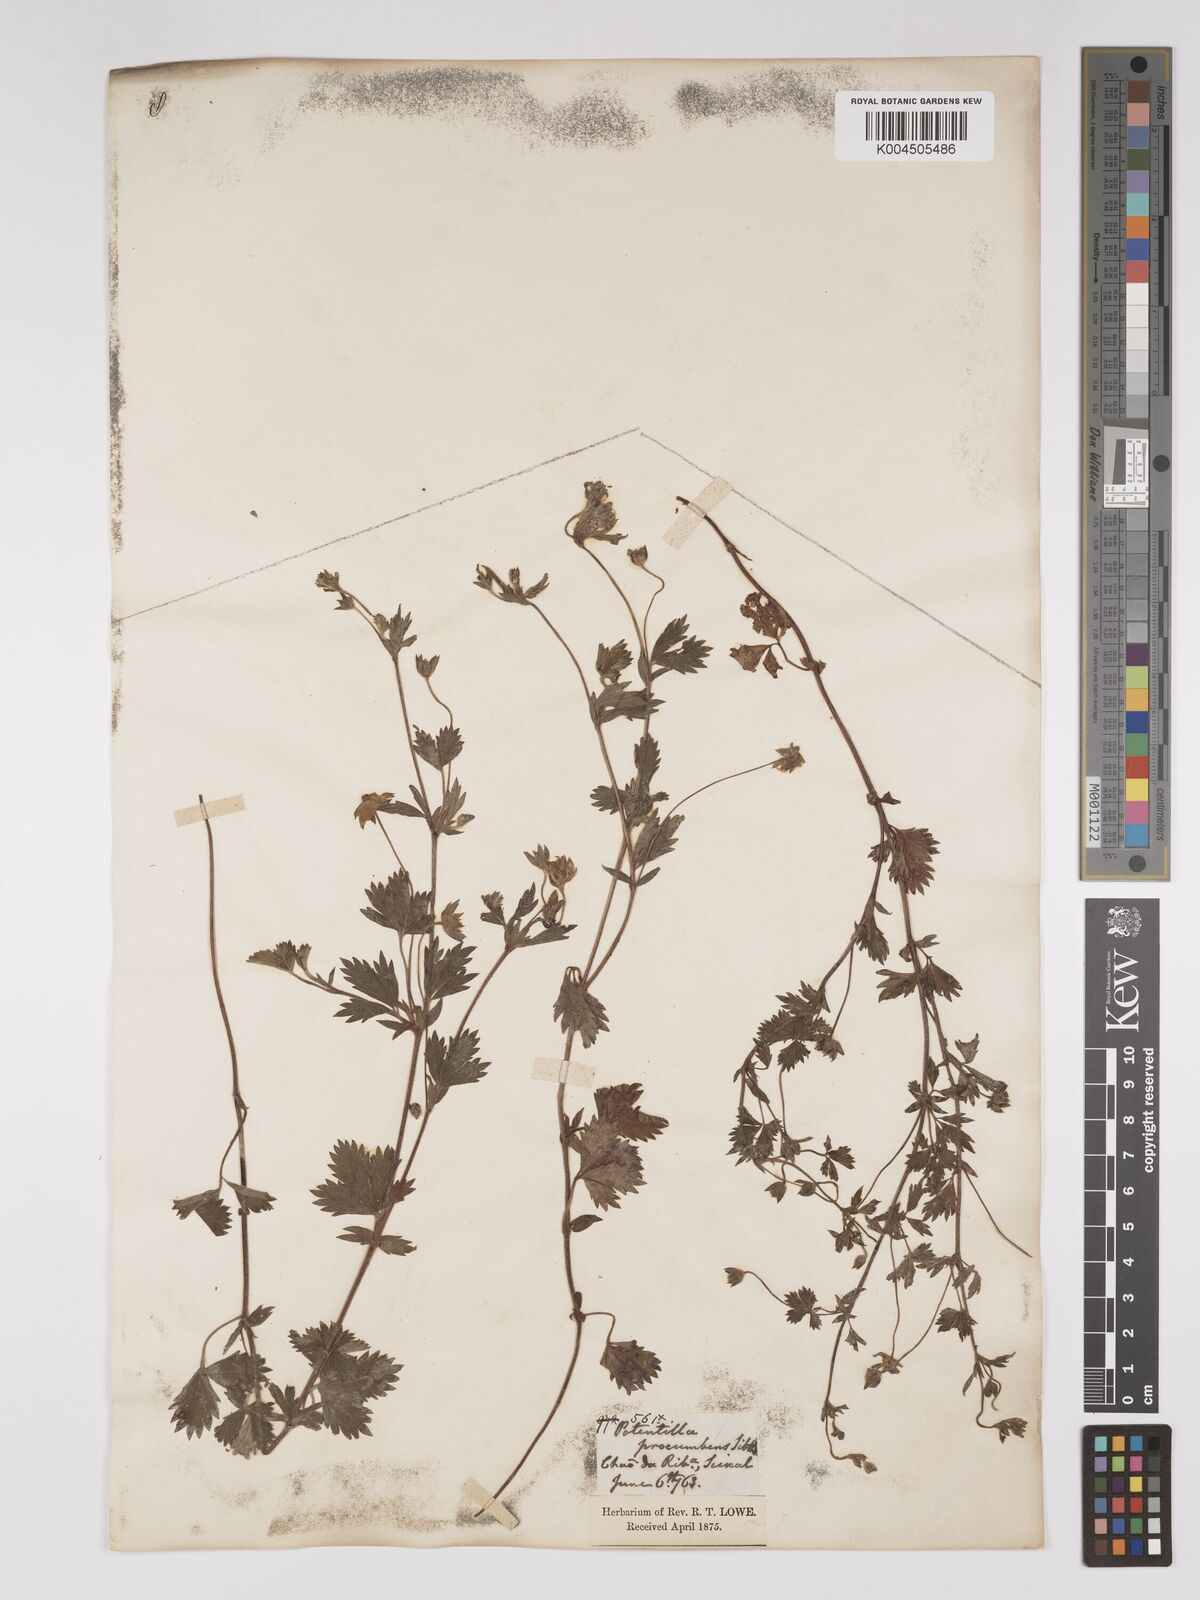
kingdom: Plantae
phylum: Tracheophyta
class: Magnoliopsida
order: Rosales
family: Rosaceae
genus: Potentilla
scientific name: Potentilla
